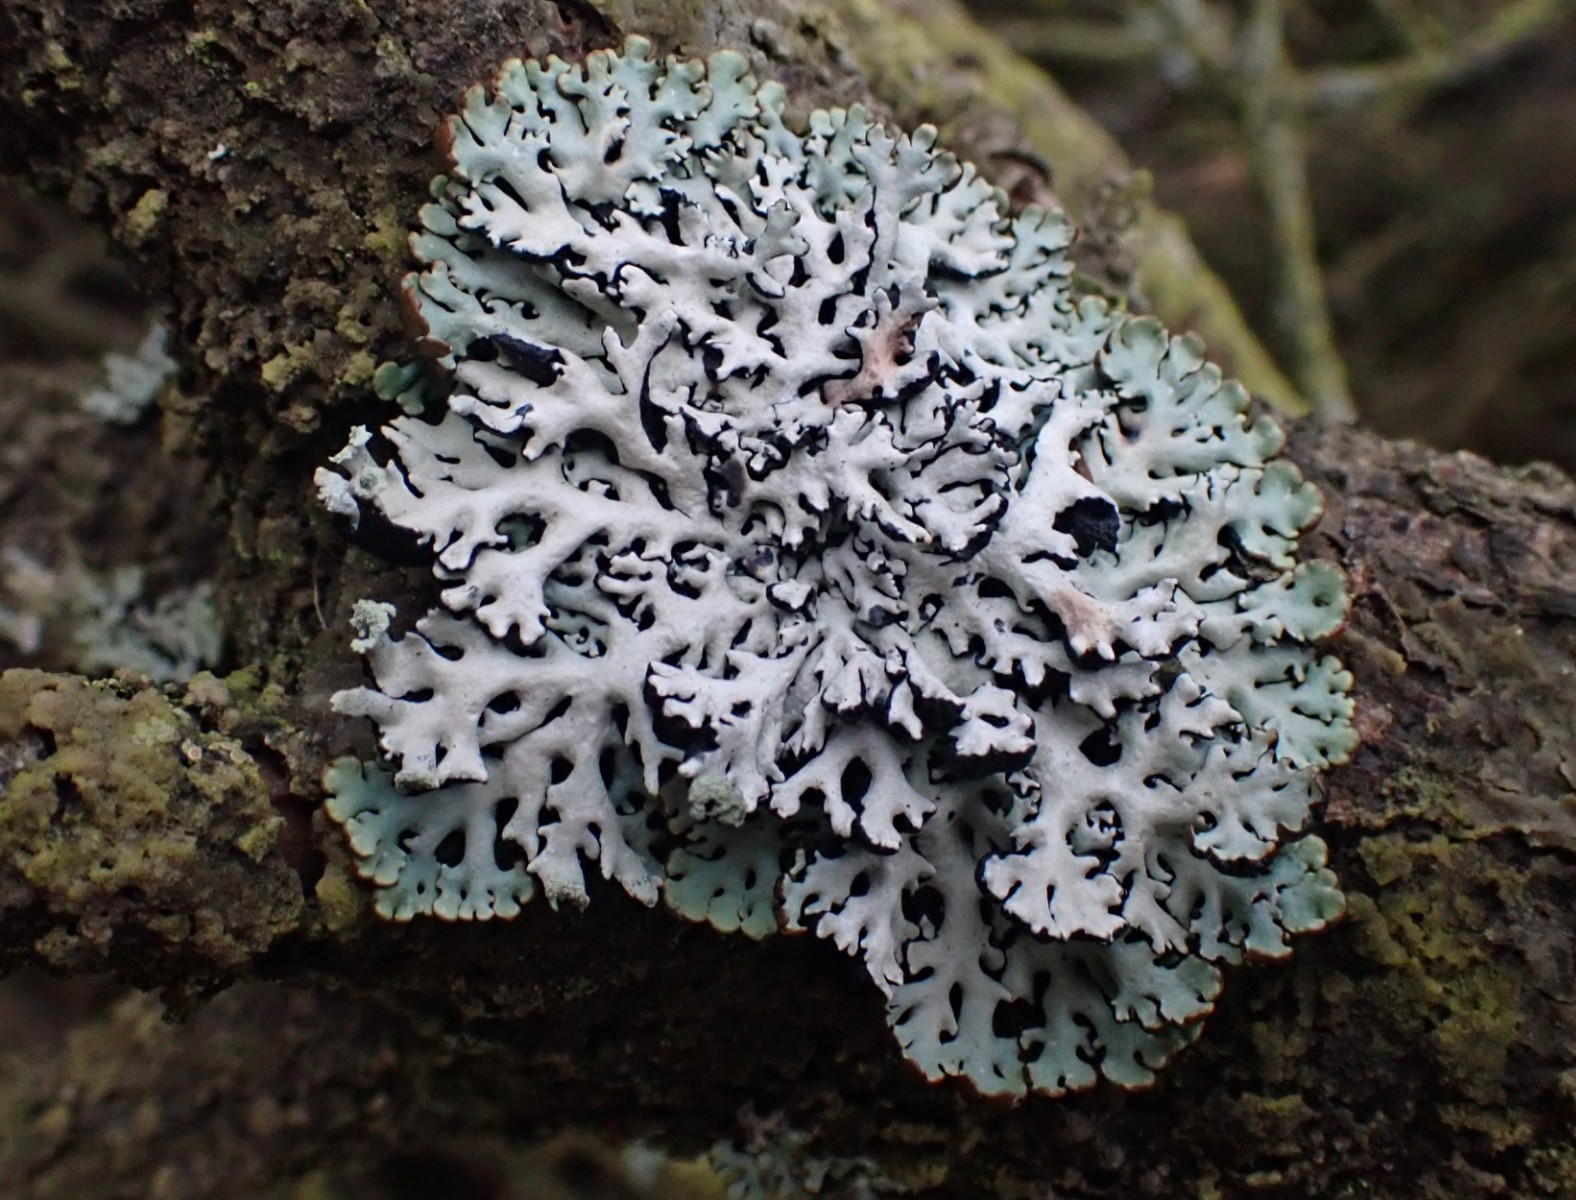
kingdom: Fungi
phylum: Ascomycota
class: Lecanoromycetes
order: Lecanorales
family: Parmeliaceae
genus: Hypogymnia
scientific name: Hypogymnia physodes
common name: almindelig kvistlav
